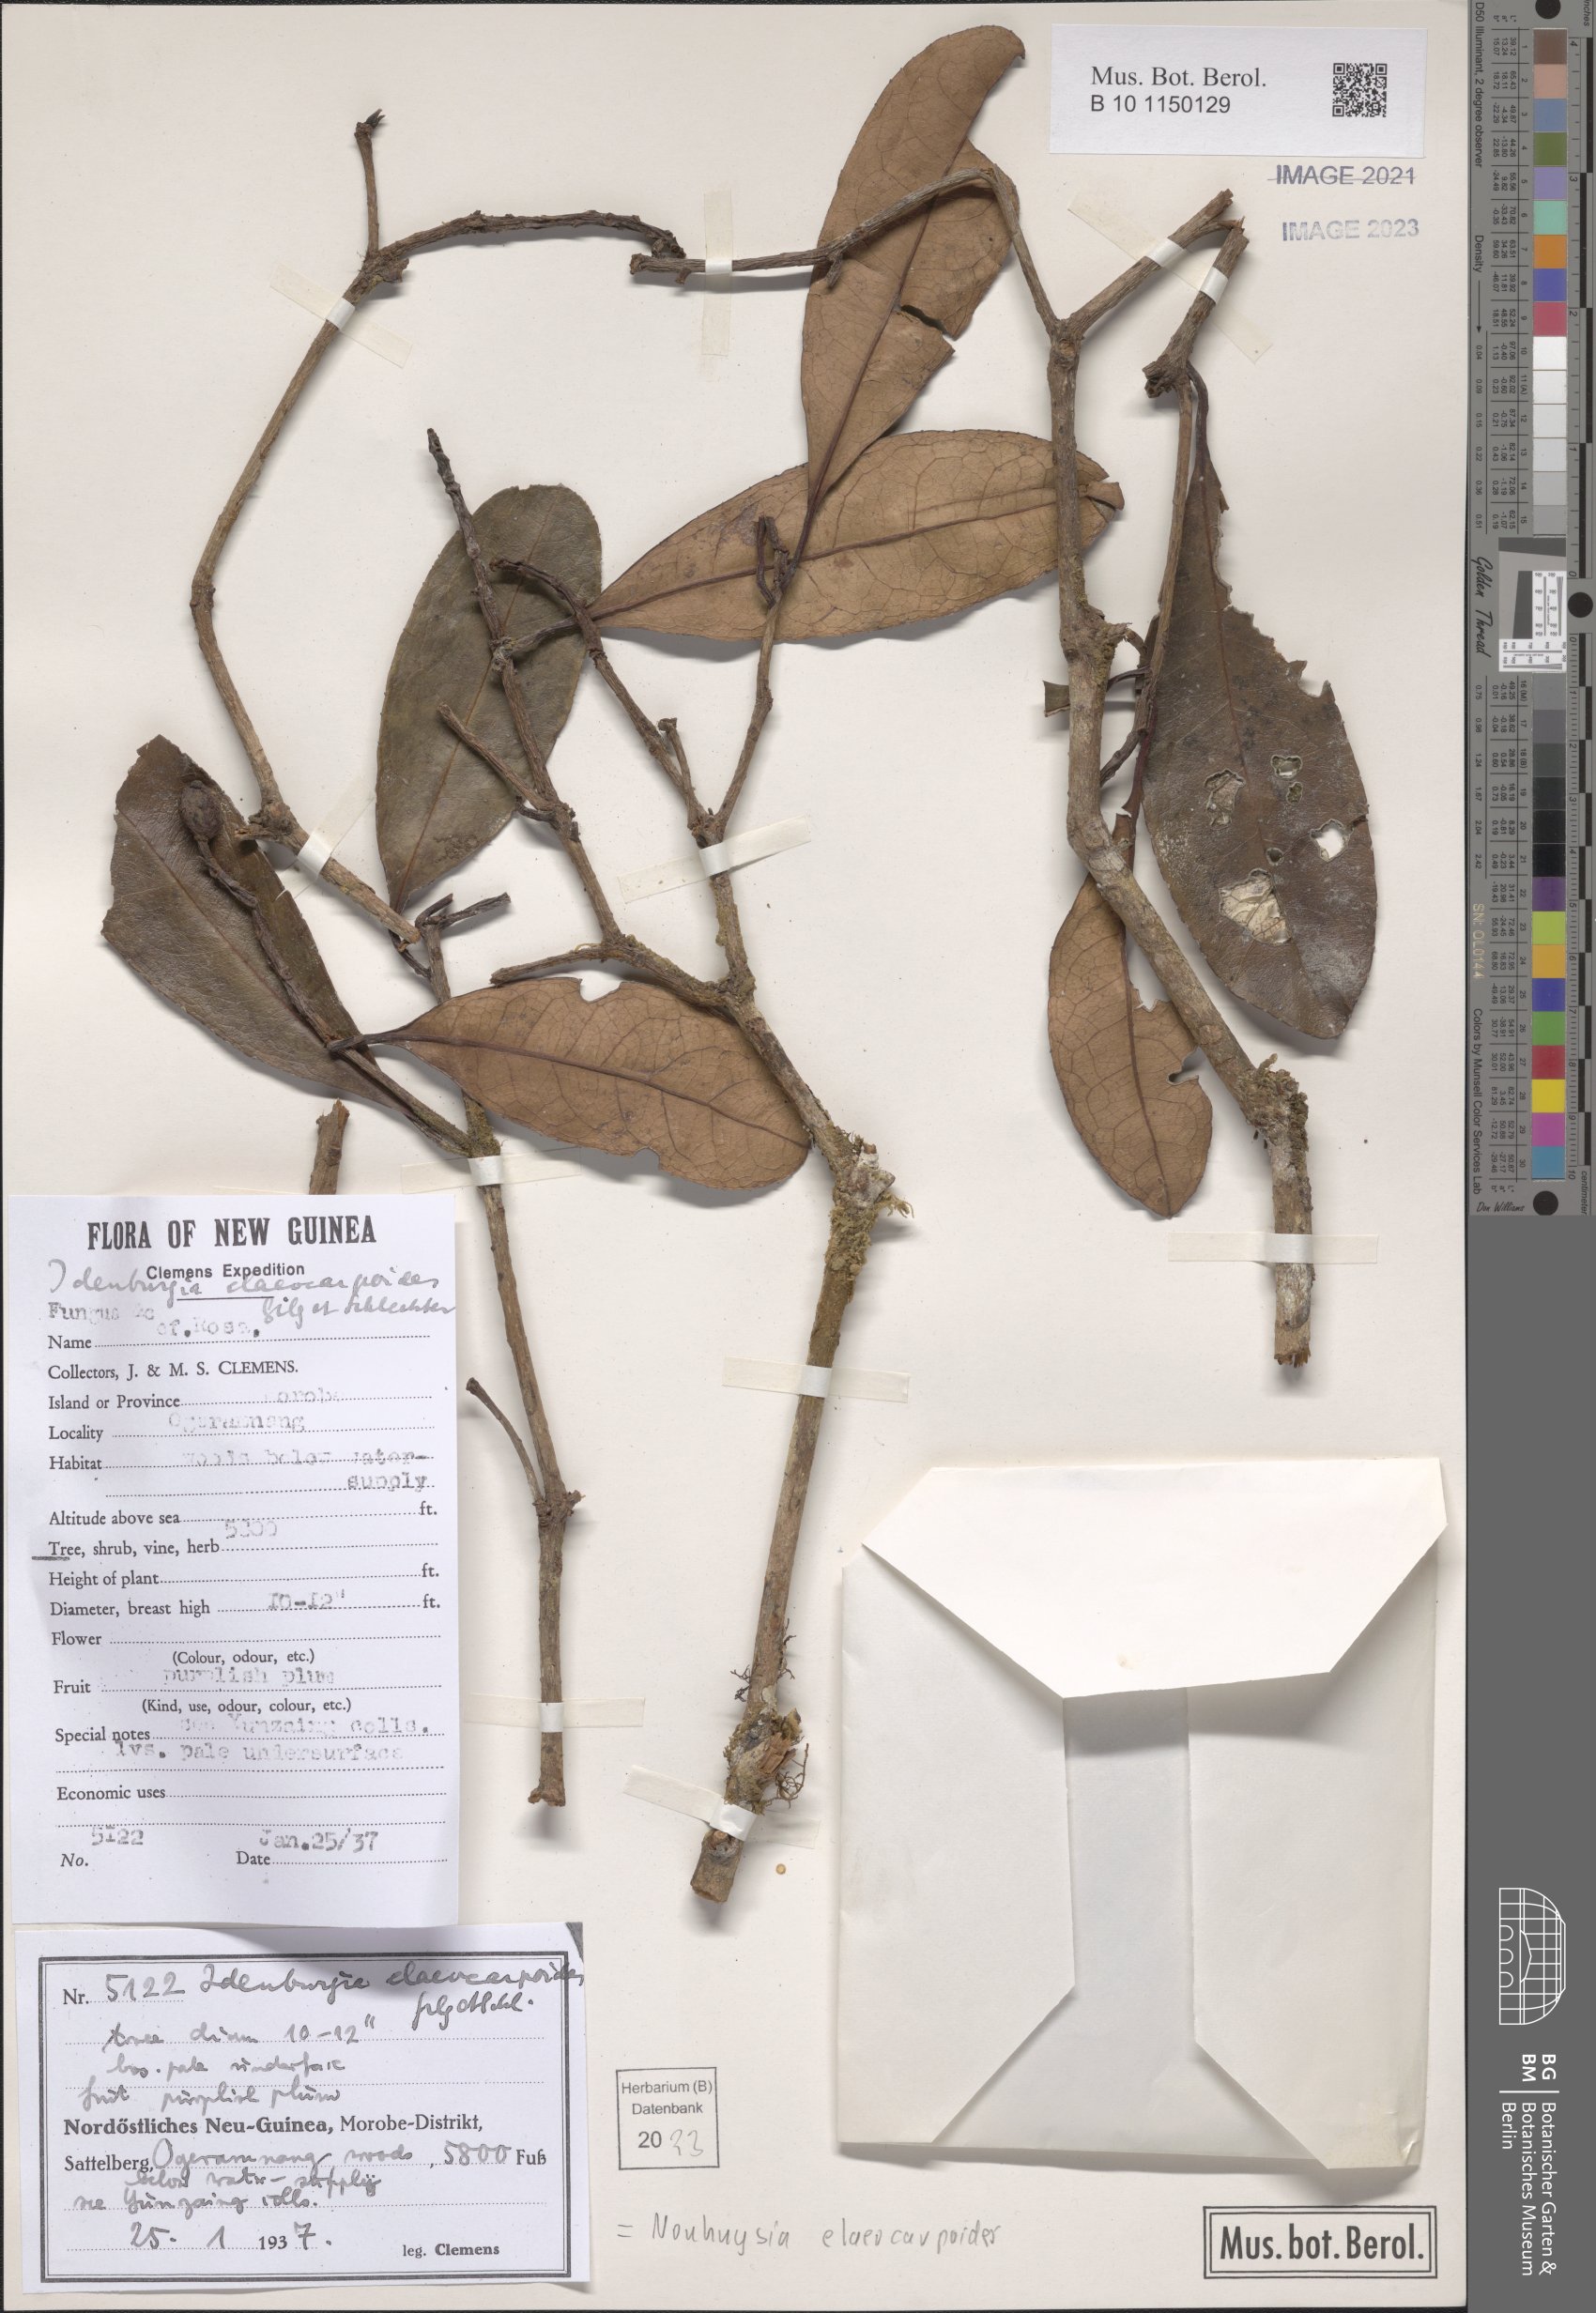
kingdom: Plantae
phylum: Tracheophyta
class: Magnoliopsida
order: Paracryphiales
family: Paracryphiaceae
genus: Sphenostemon
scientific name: Sphenostemon papuanus
